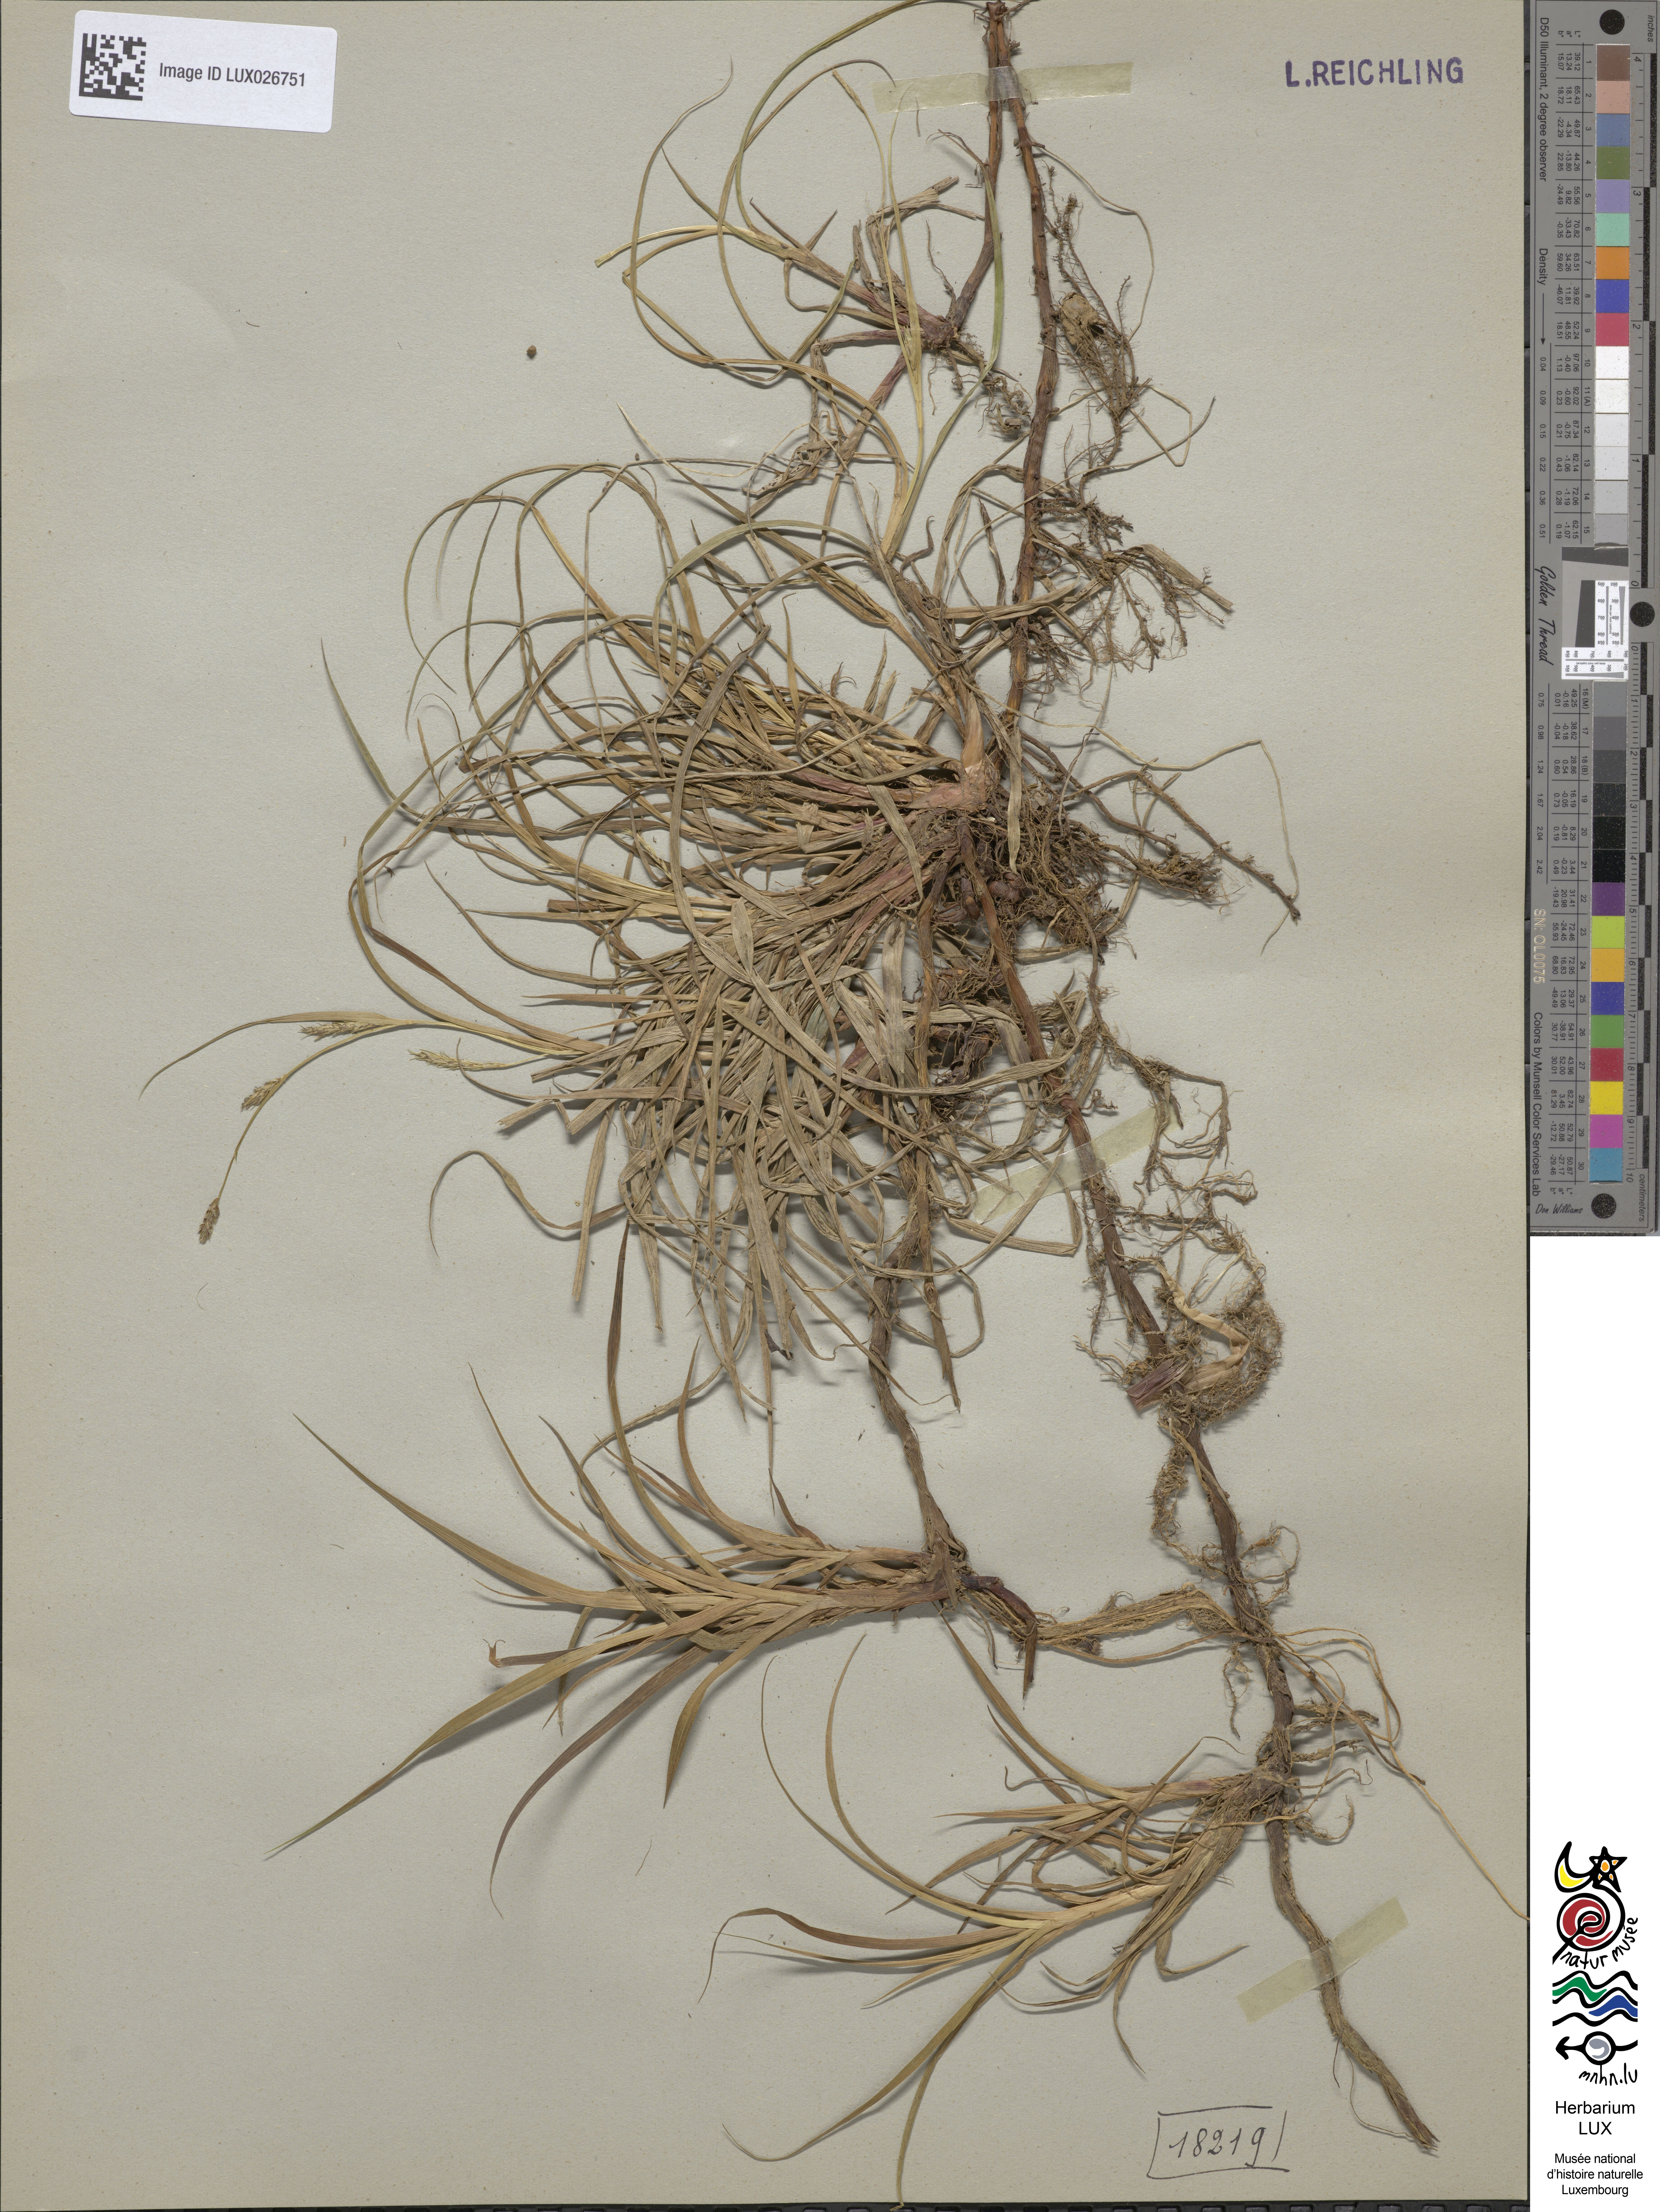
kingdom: Plantae
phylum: Tracheophyta
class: Liliopsida
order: Poales
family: Cyperaceae
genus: Carex
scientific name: Carex hirta
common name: Hairy sedge
